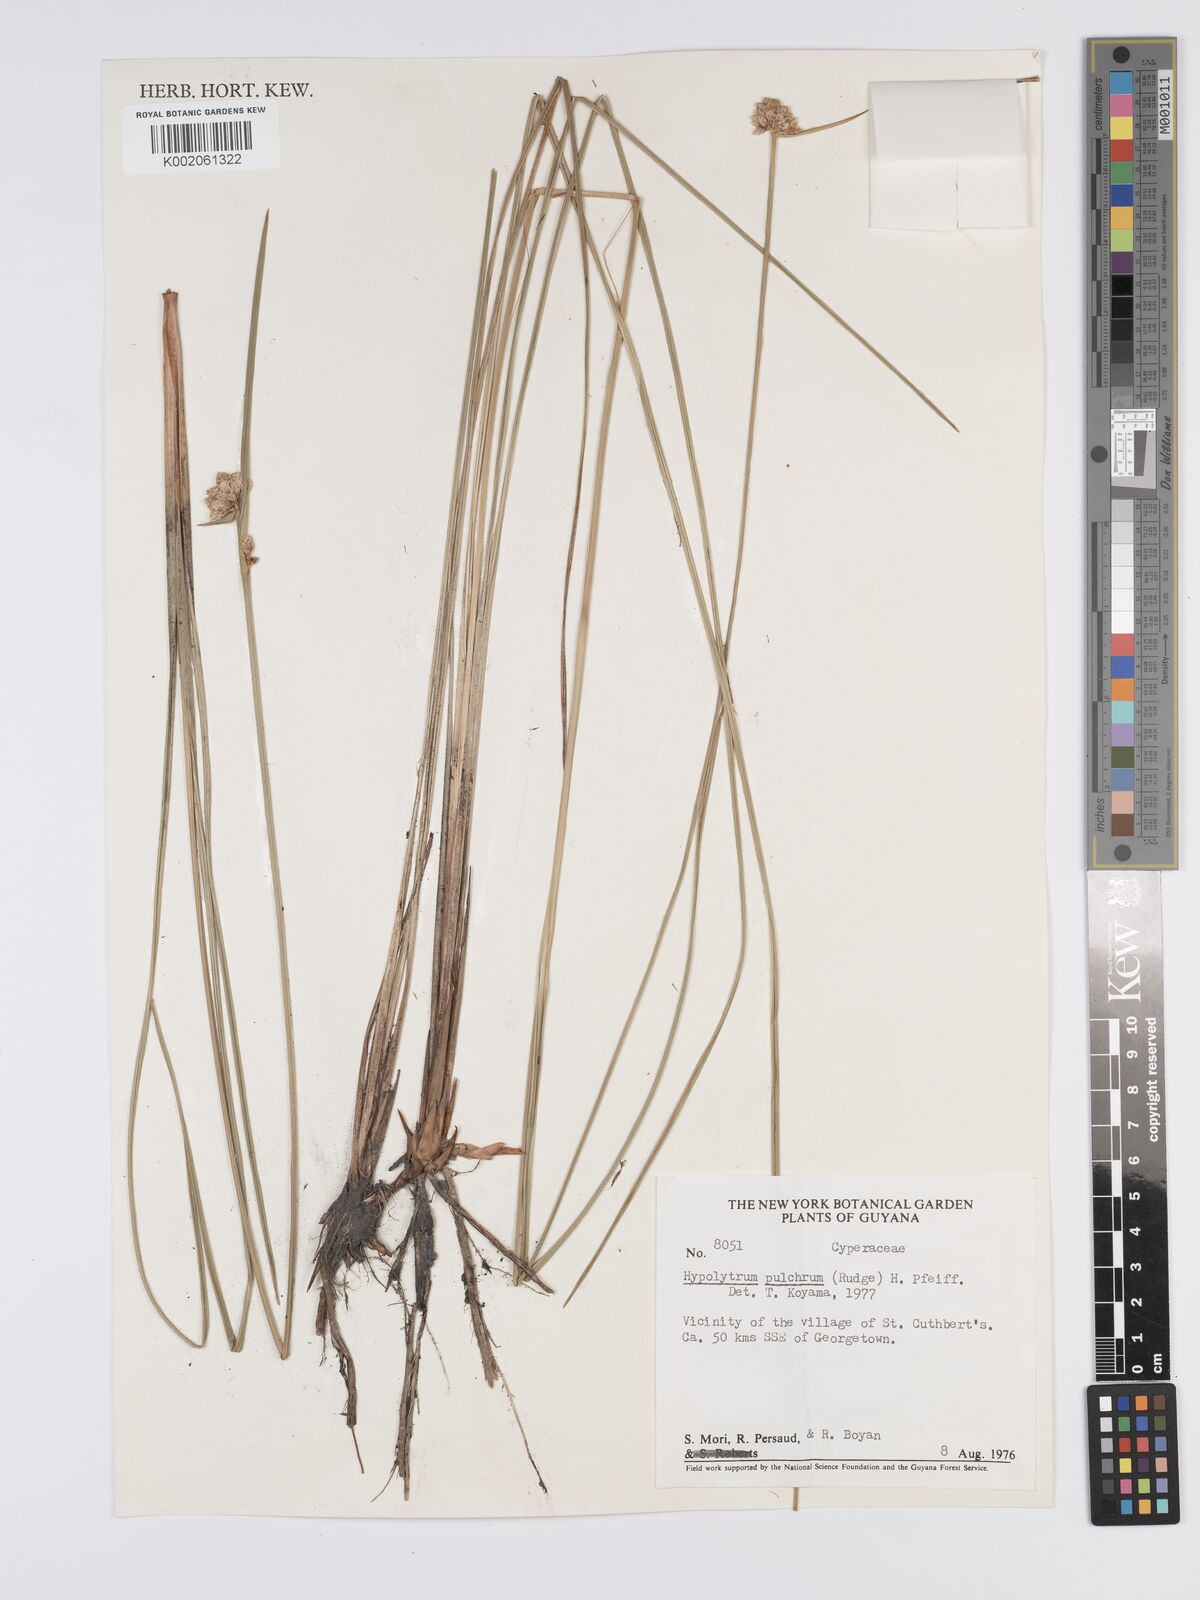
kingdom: Plantae
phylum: Tracheophyta
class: Liliopsida
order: Poales
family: Cyperaceae
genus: Hypolytrum
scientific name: Hypolytrum pulchrum
